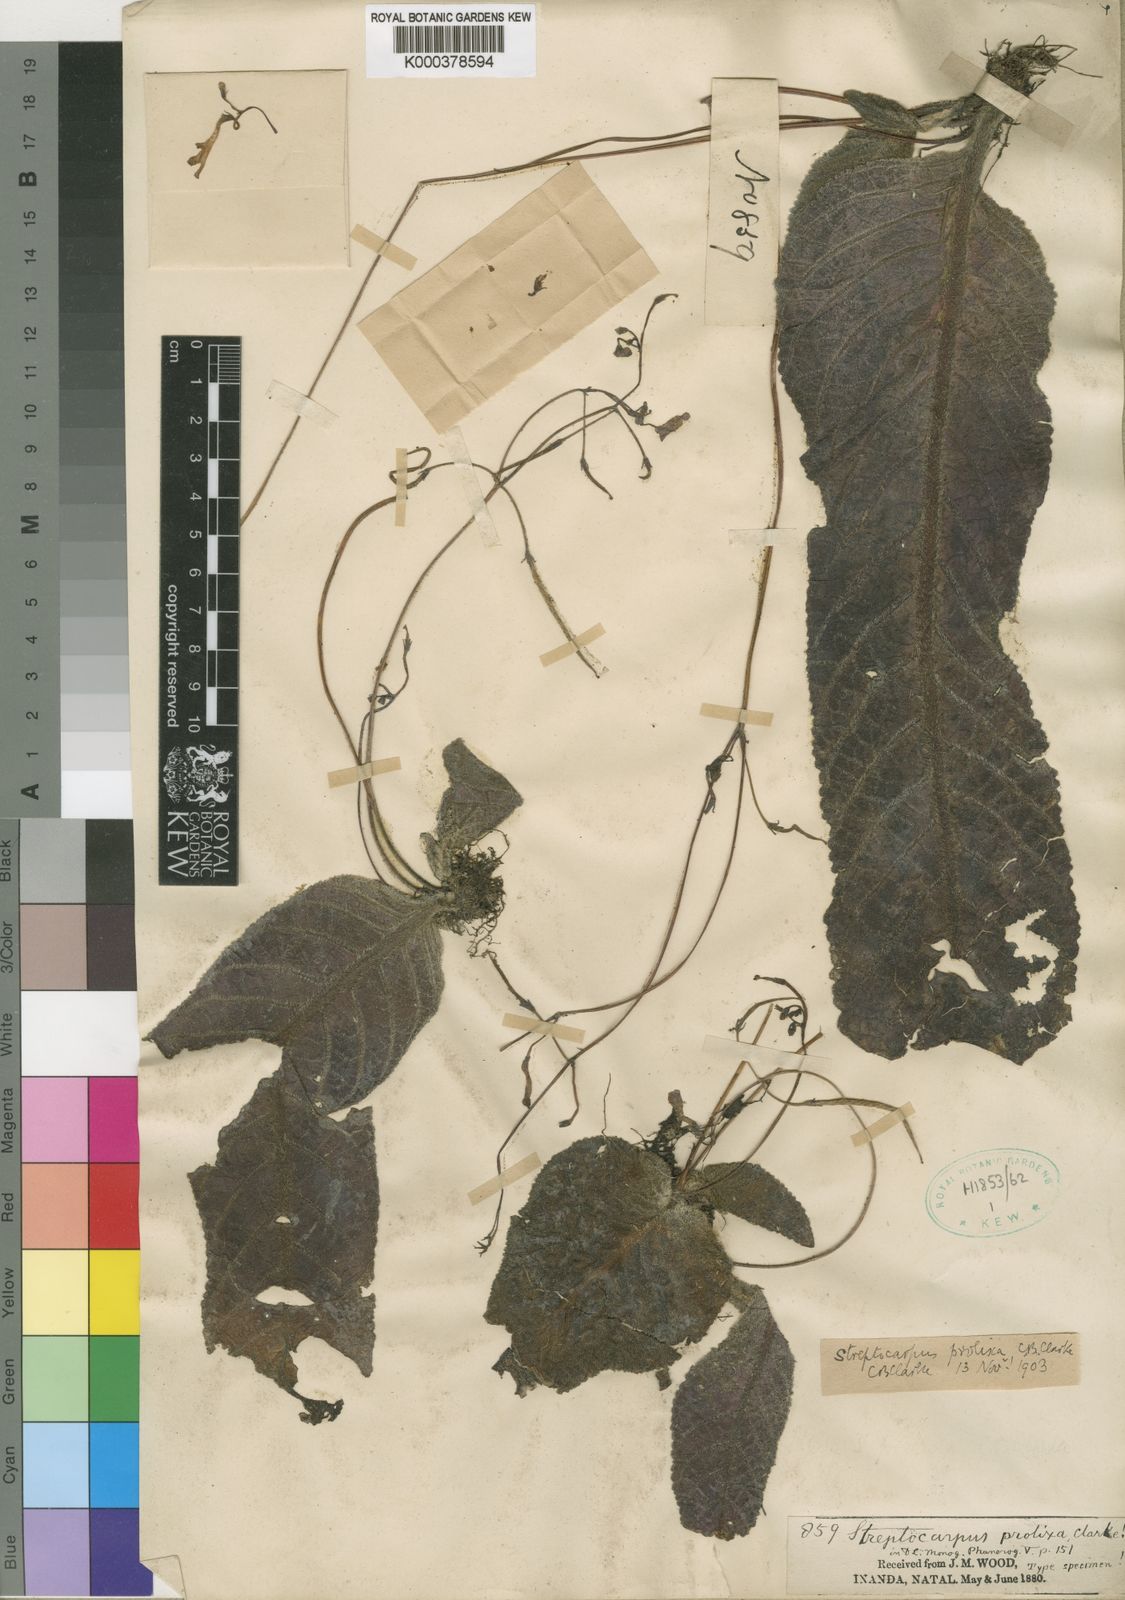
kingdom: Plantae
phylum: Tracheophyta
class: Magnoliopsida
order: Lamiales
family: Gesneriaceae
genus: Streptocarpus
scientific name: Streptocarpus prolixus
